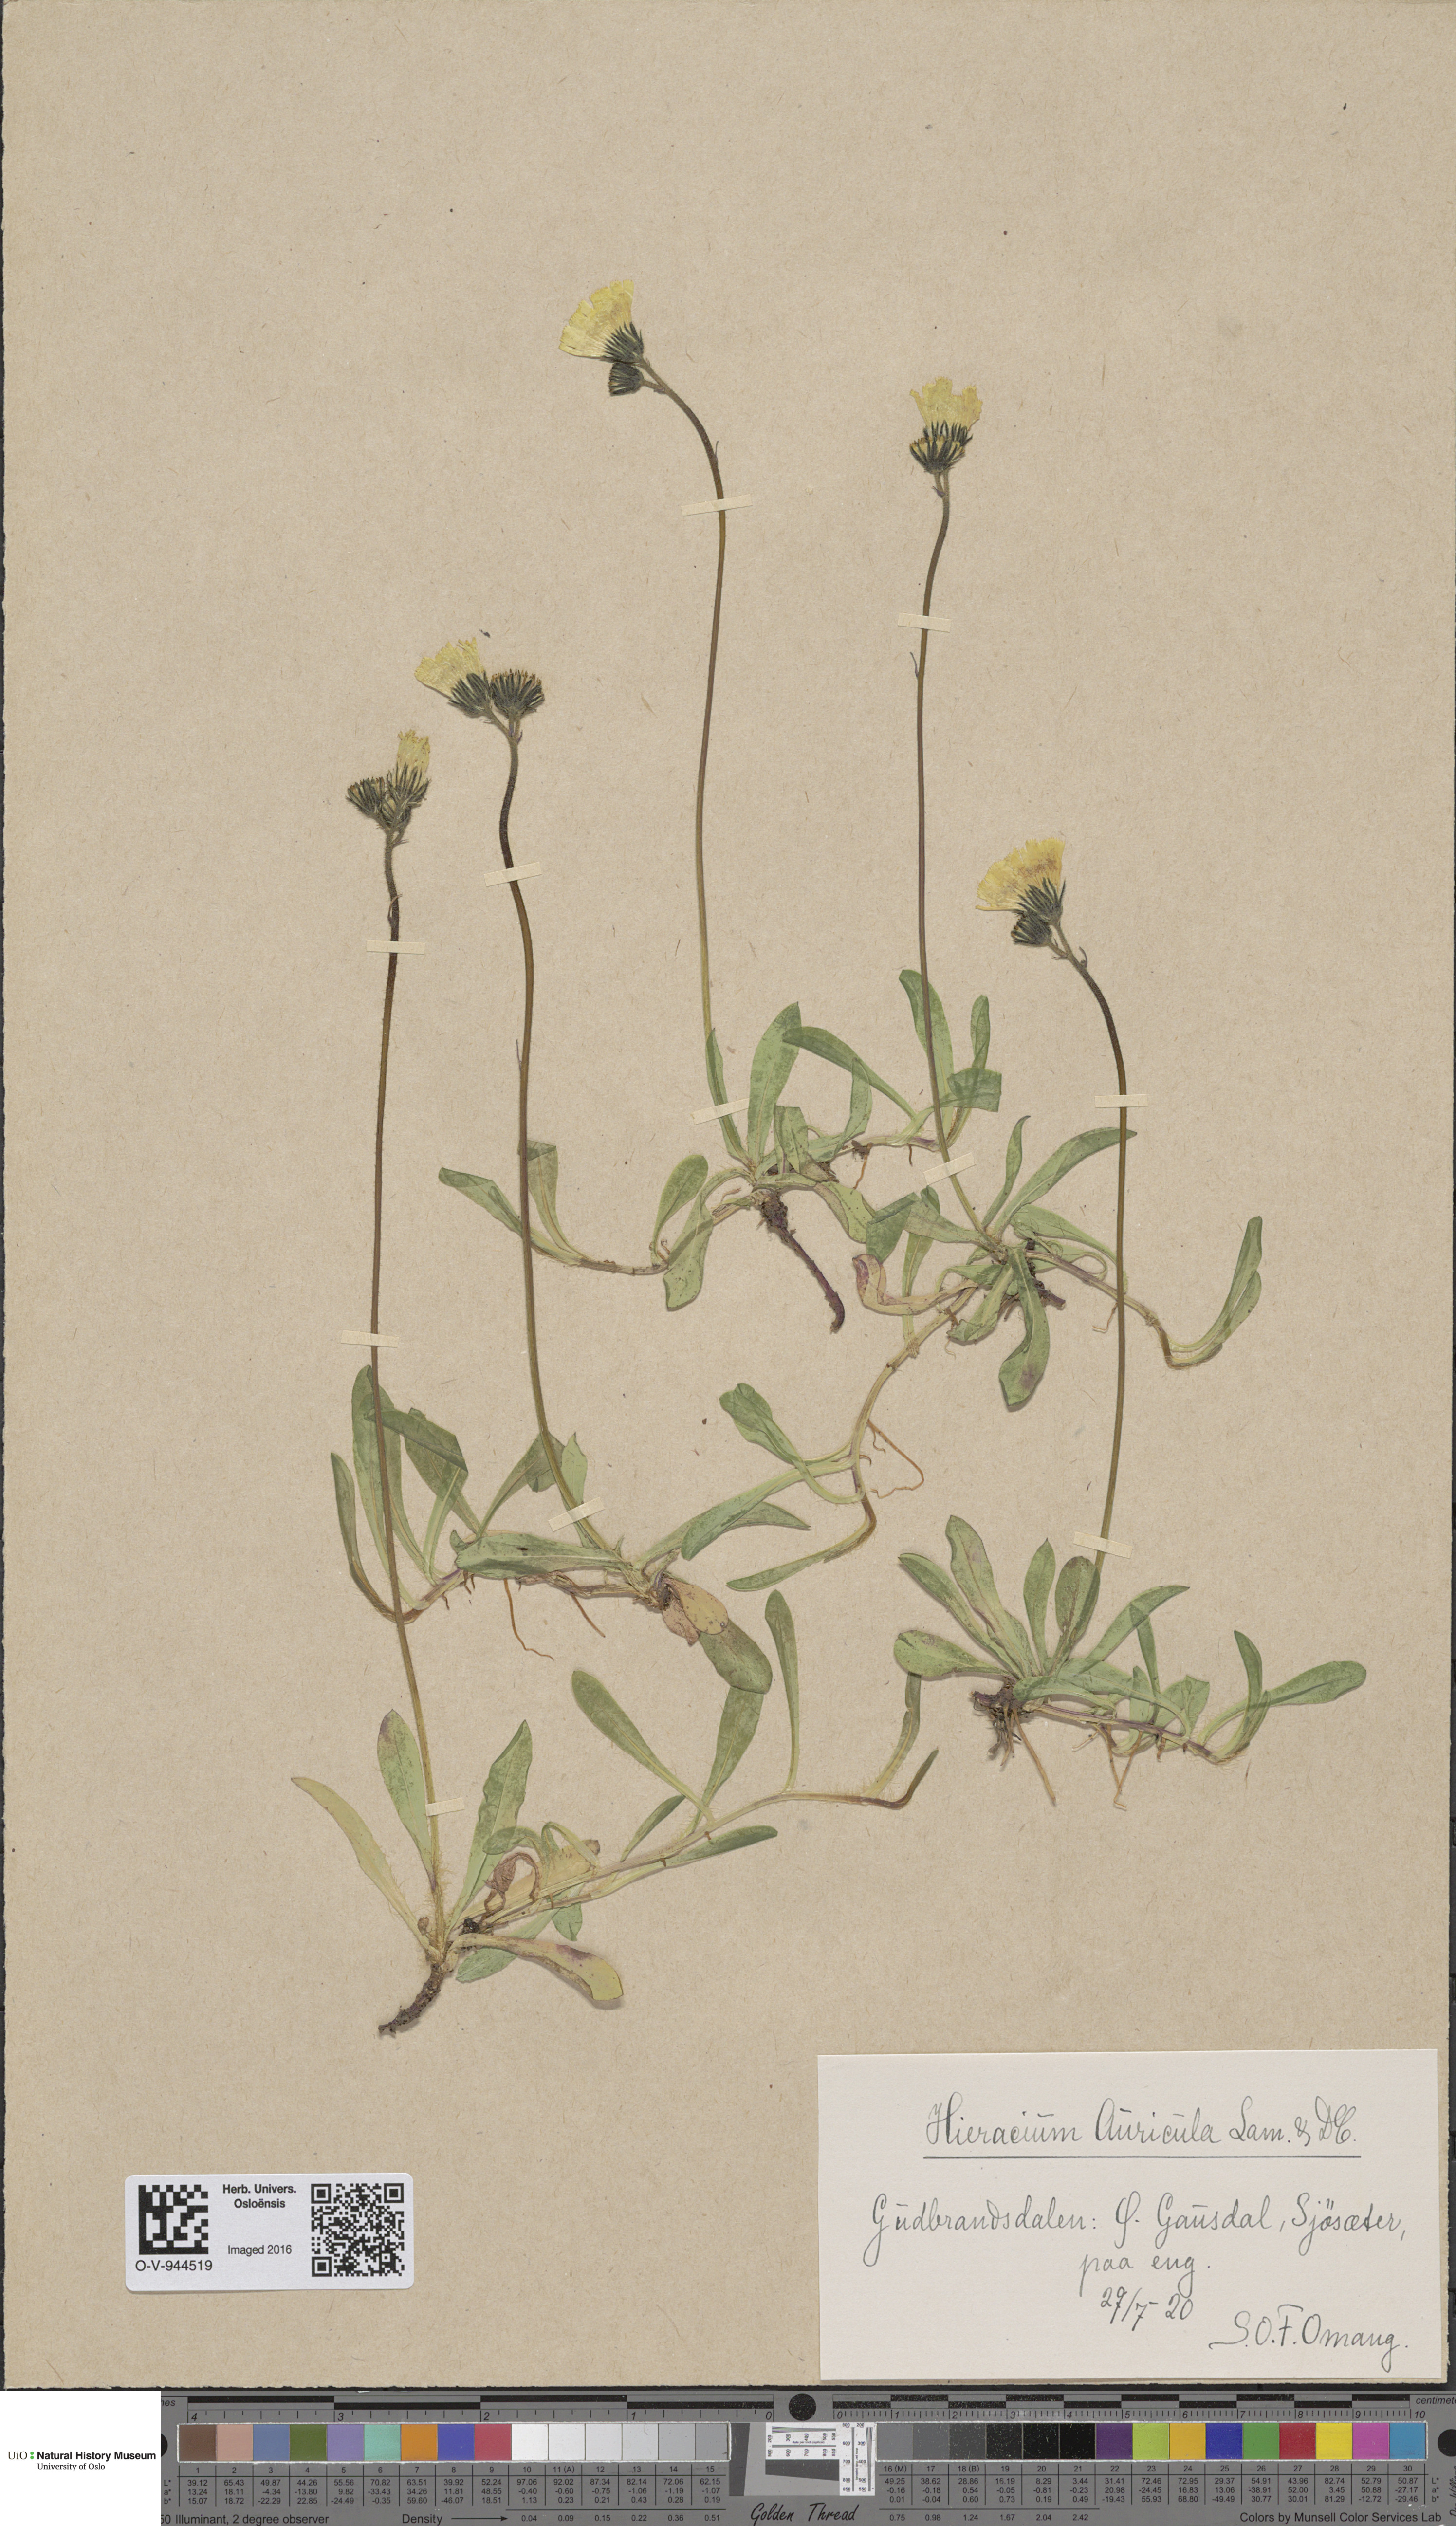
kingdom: Plantae
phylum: Tracheophyta
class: Magnoliopsida
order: Asterales
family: Asteraceae
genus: Pilosella
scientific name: Pilosella lactucella
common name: Glaucous fox-and-cubs
